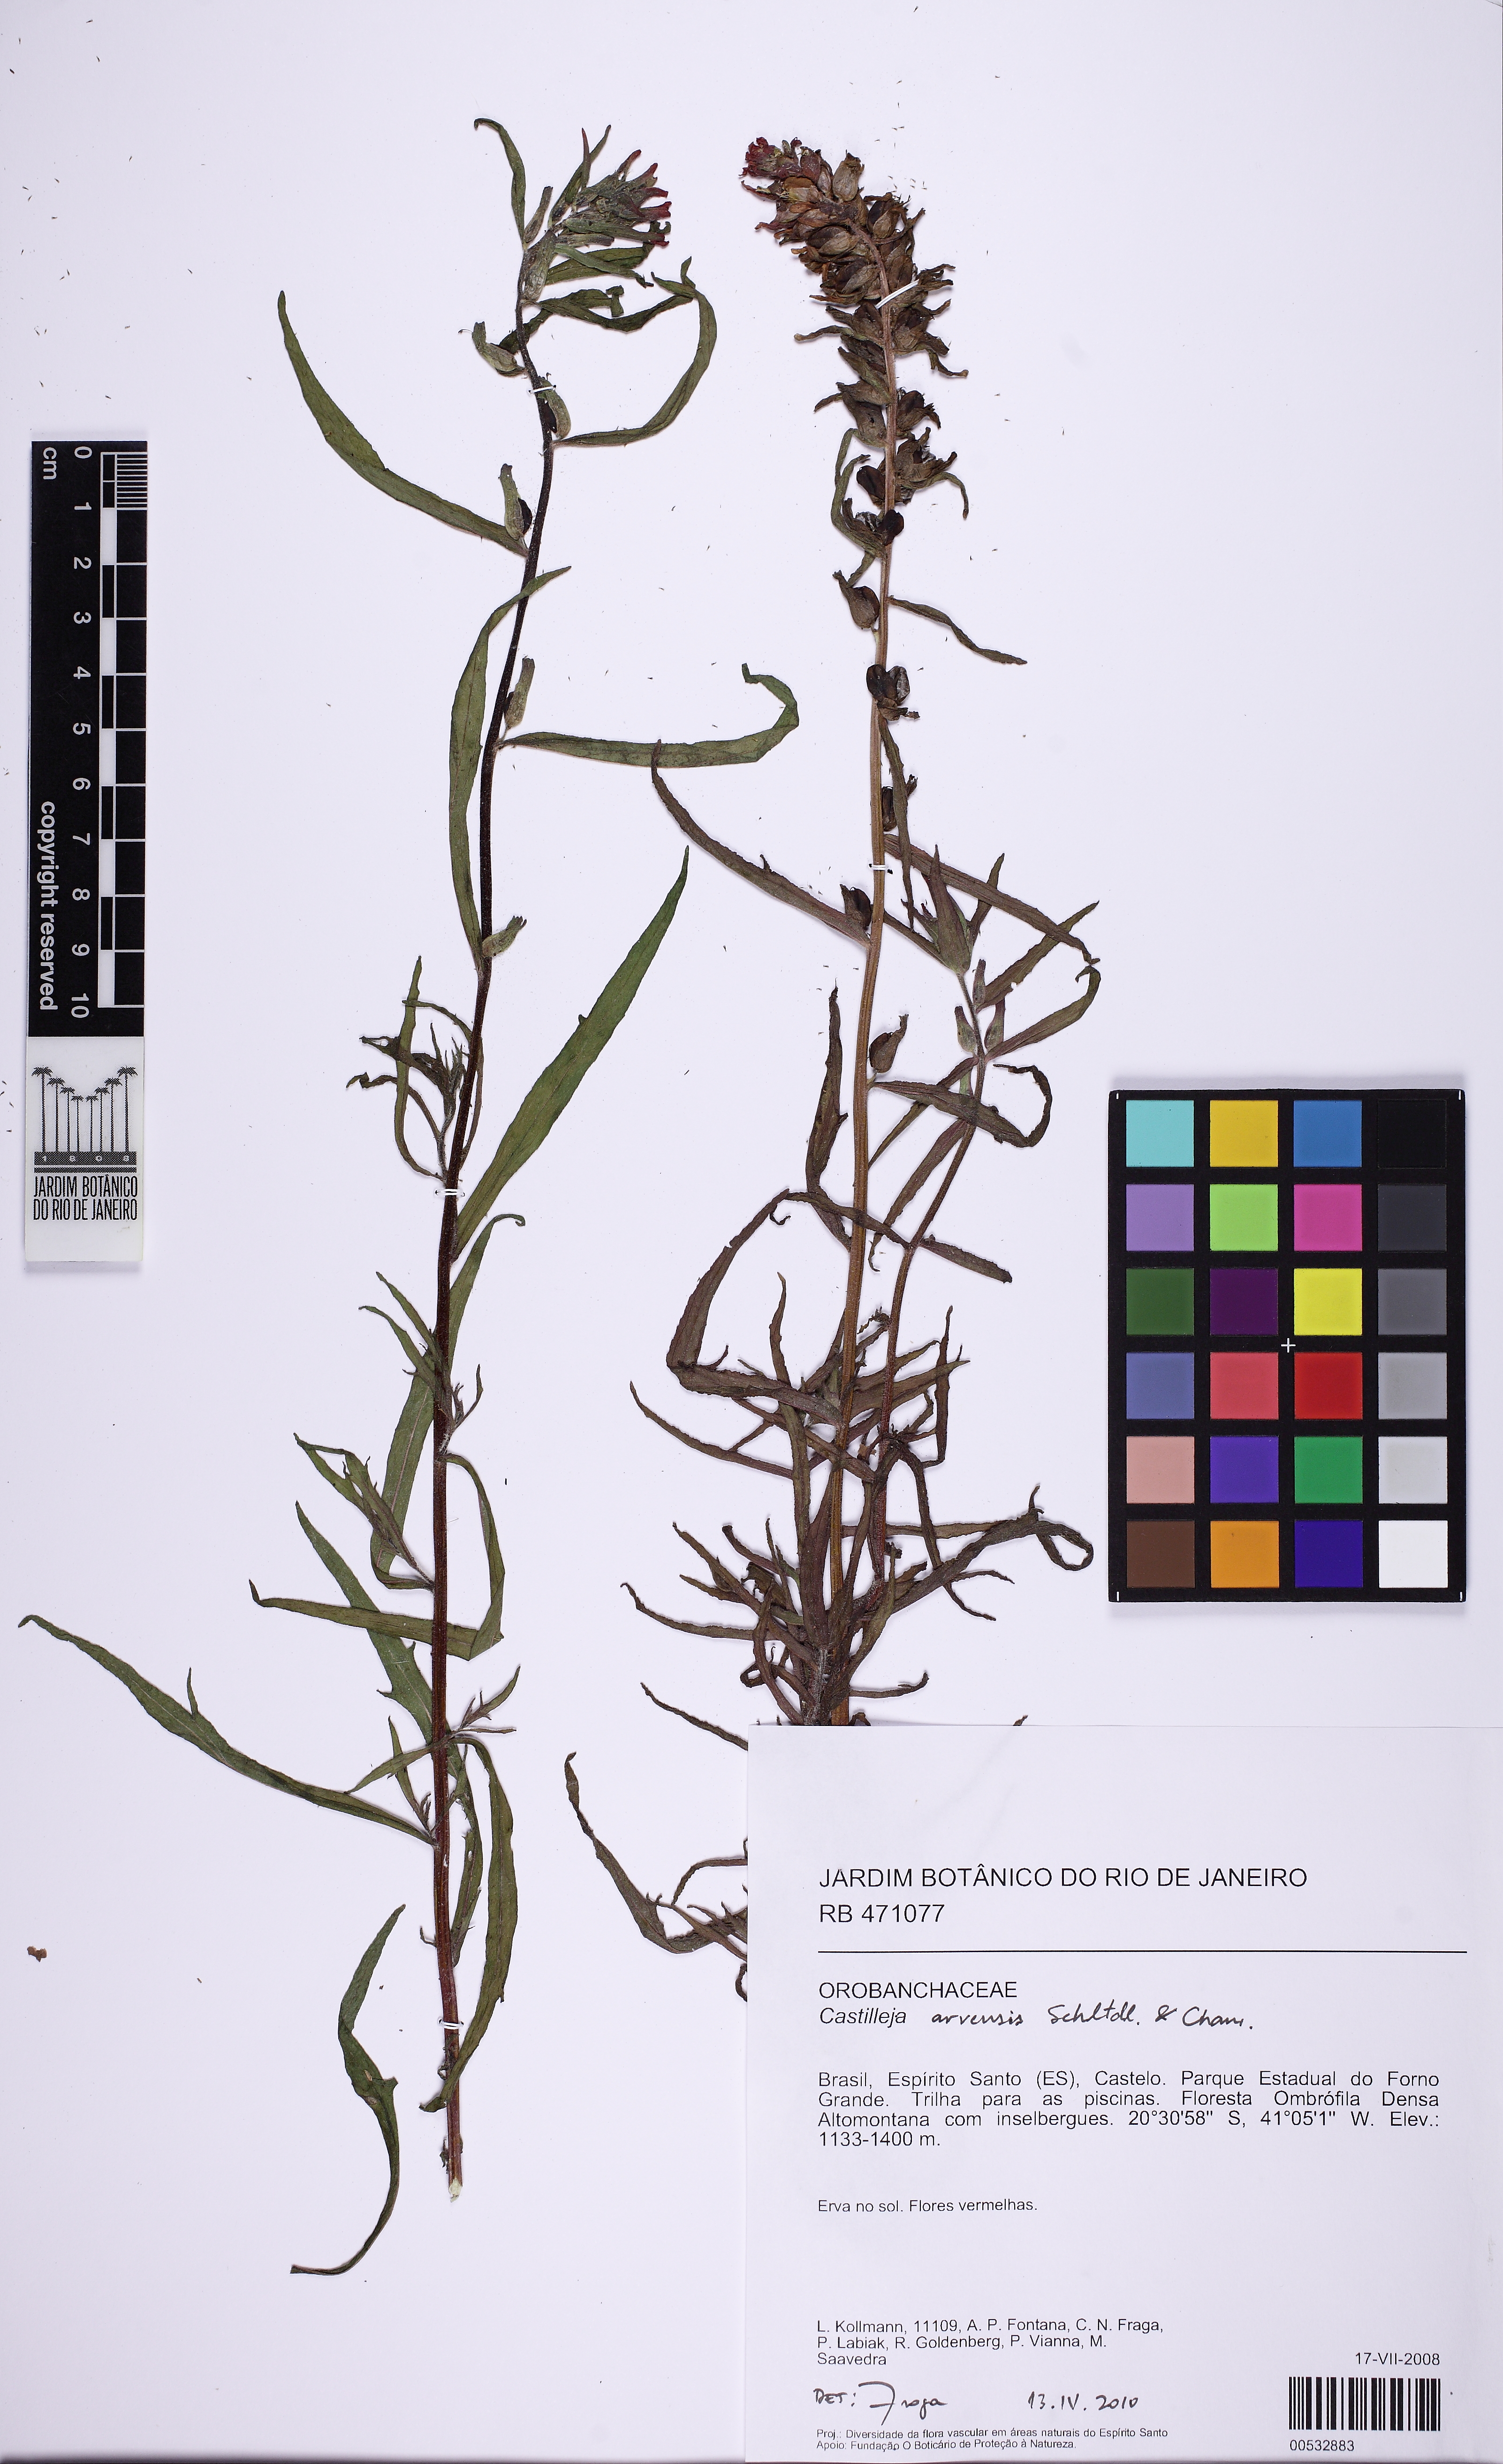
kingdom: Plantae
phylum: Tracheophyta
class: Magnoliopsida
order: Lamiales
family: Orobanchaceae
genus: Castilleja
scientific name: Castilleja arvensis
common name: Indian paintbrush
